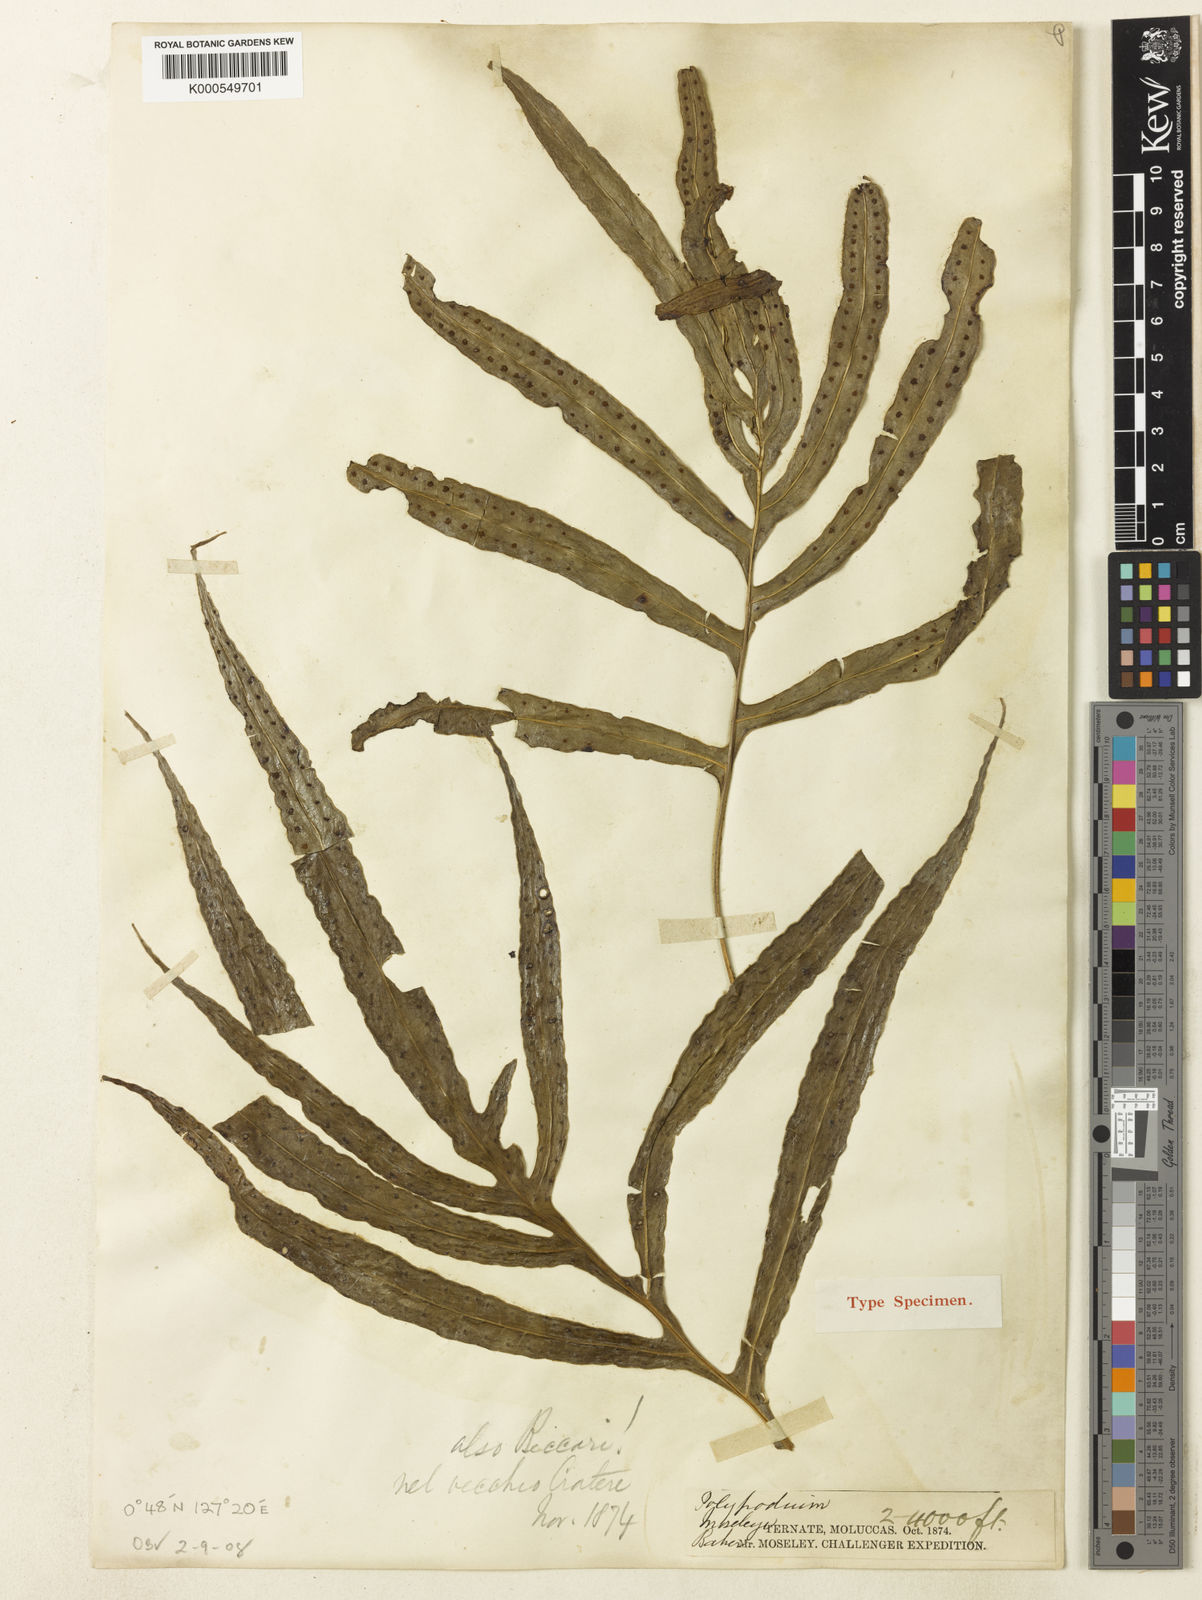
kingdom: Plantae
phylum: Tracheophyta
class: Polypodiopsida
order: Polypodiales
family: Polypodiaceae
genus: Selliguea
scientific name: Selliguea taeniata
